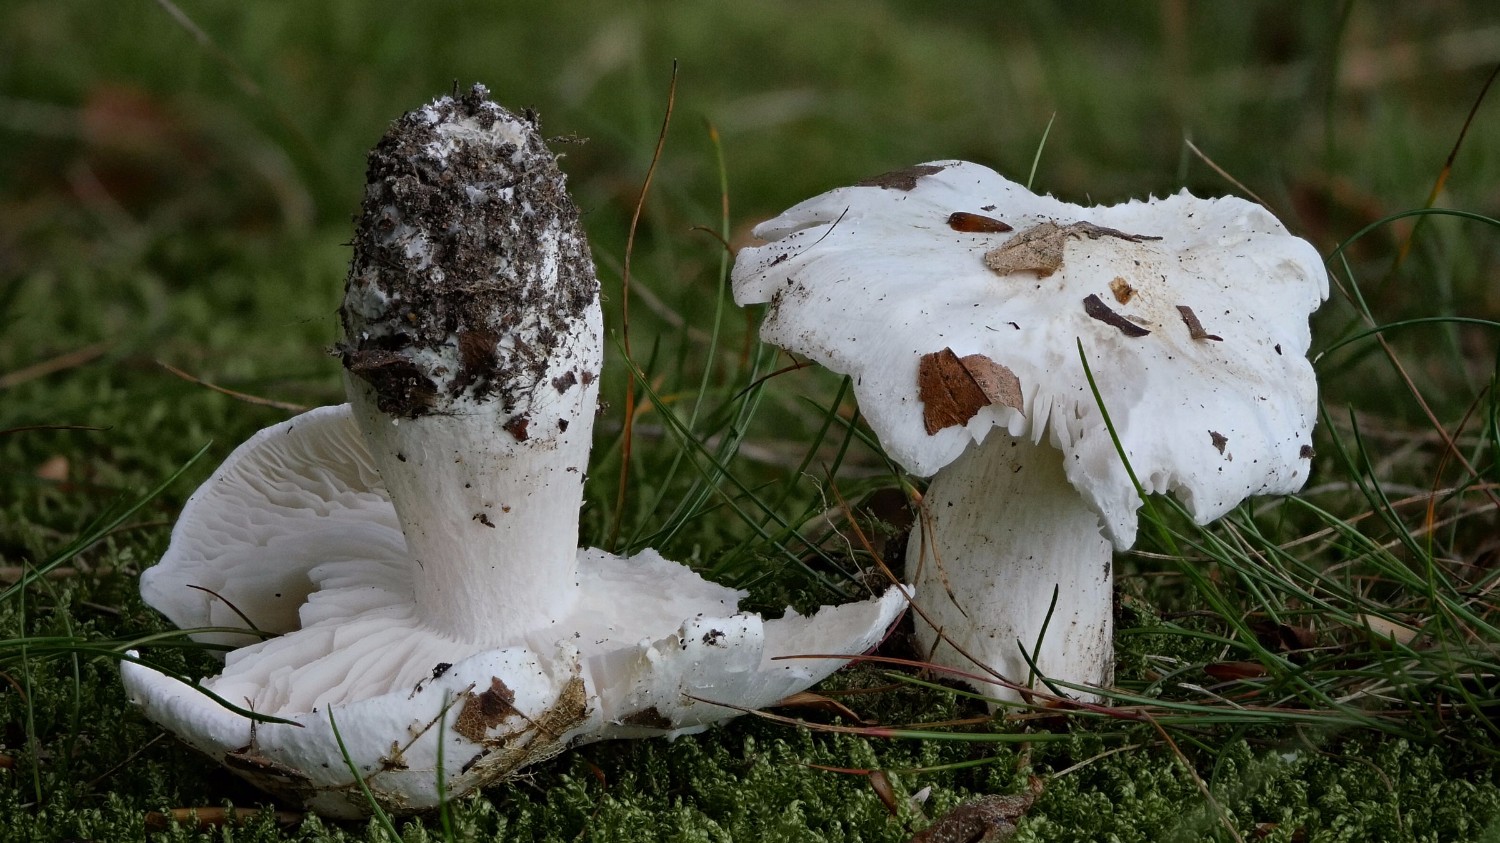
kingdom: Fungi
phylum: Basidiomycota
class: Agaricomycetes
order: Agaricales
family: Tricholomataceae
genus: Tricholoma
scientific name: Tricholoma columbetta
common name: silke-ridderhat
